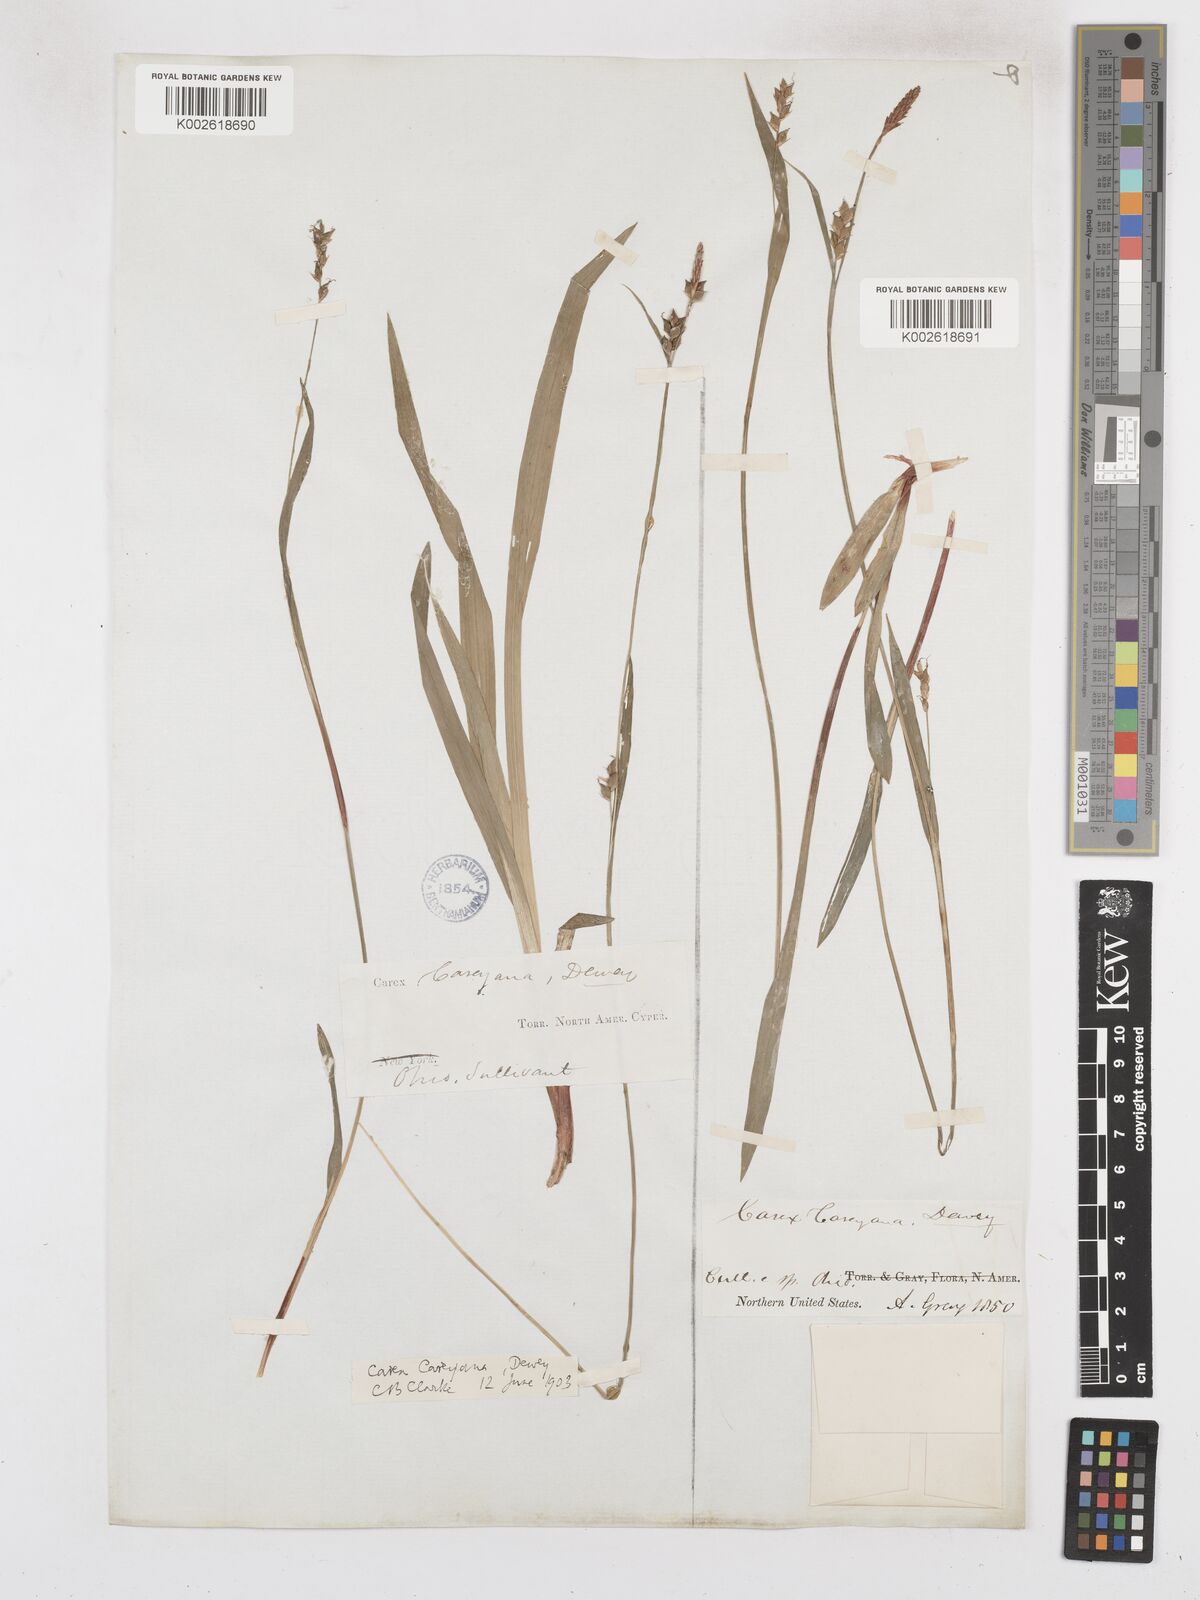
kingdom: Plantae
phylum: Tracheophyta
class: Liliopsida
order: Poales
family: Cyperaceae
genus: Carex
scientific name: Carex careyana
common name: Carey's sedge
